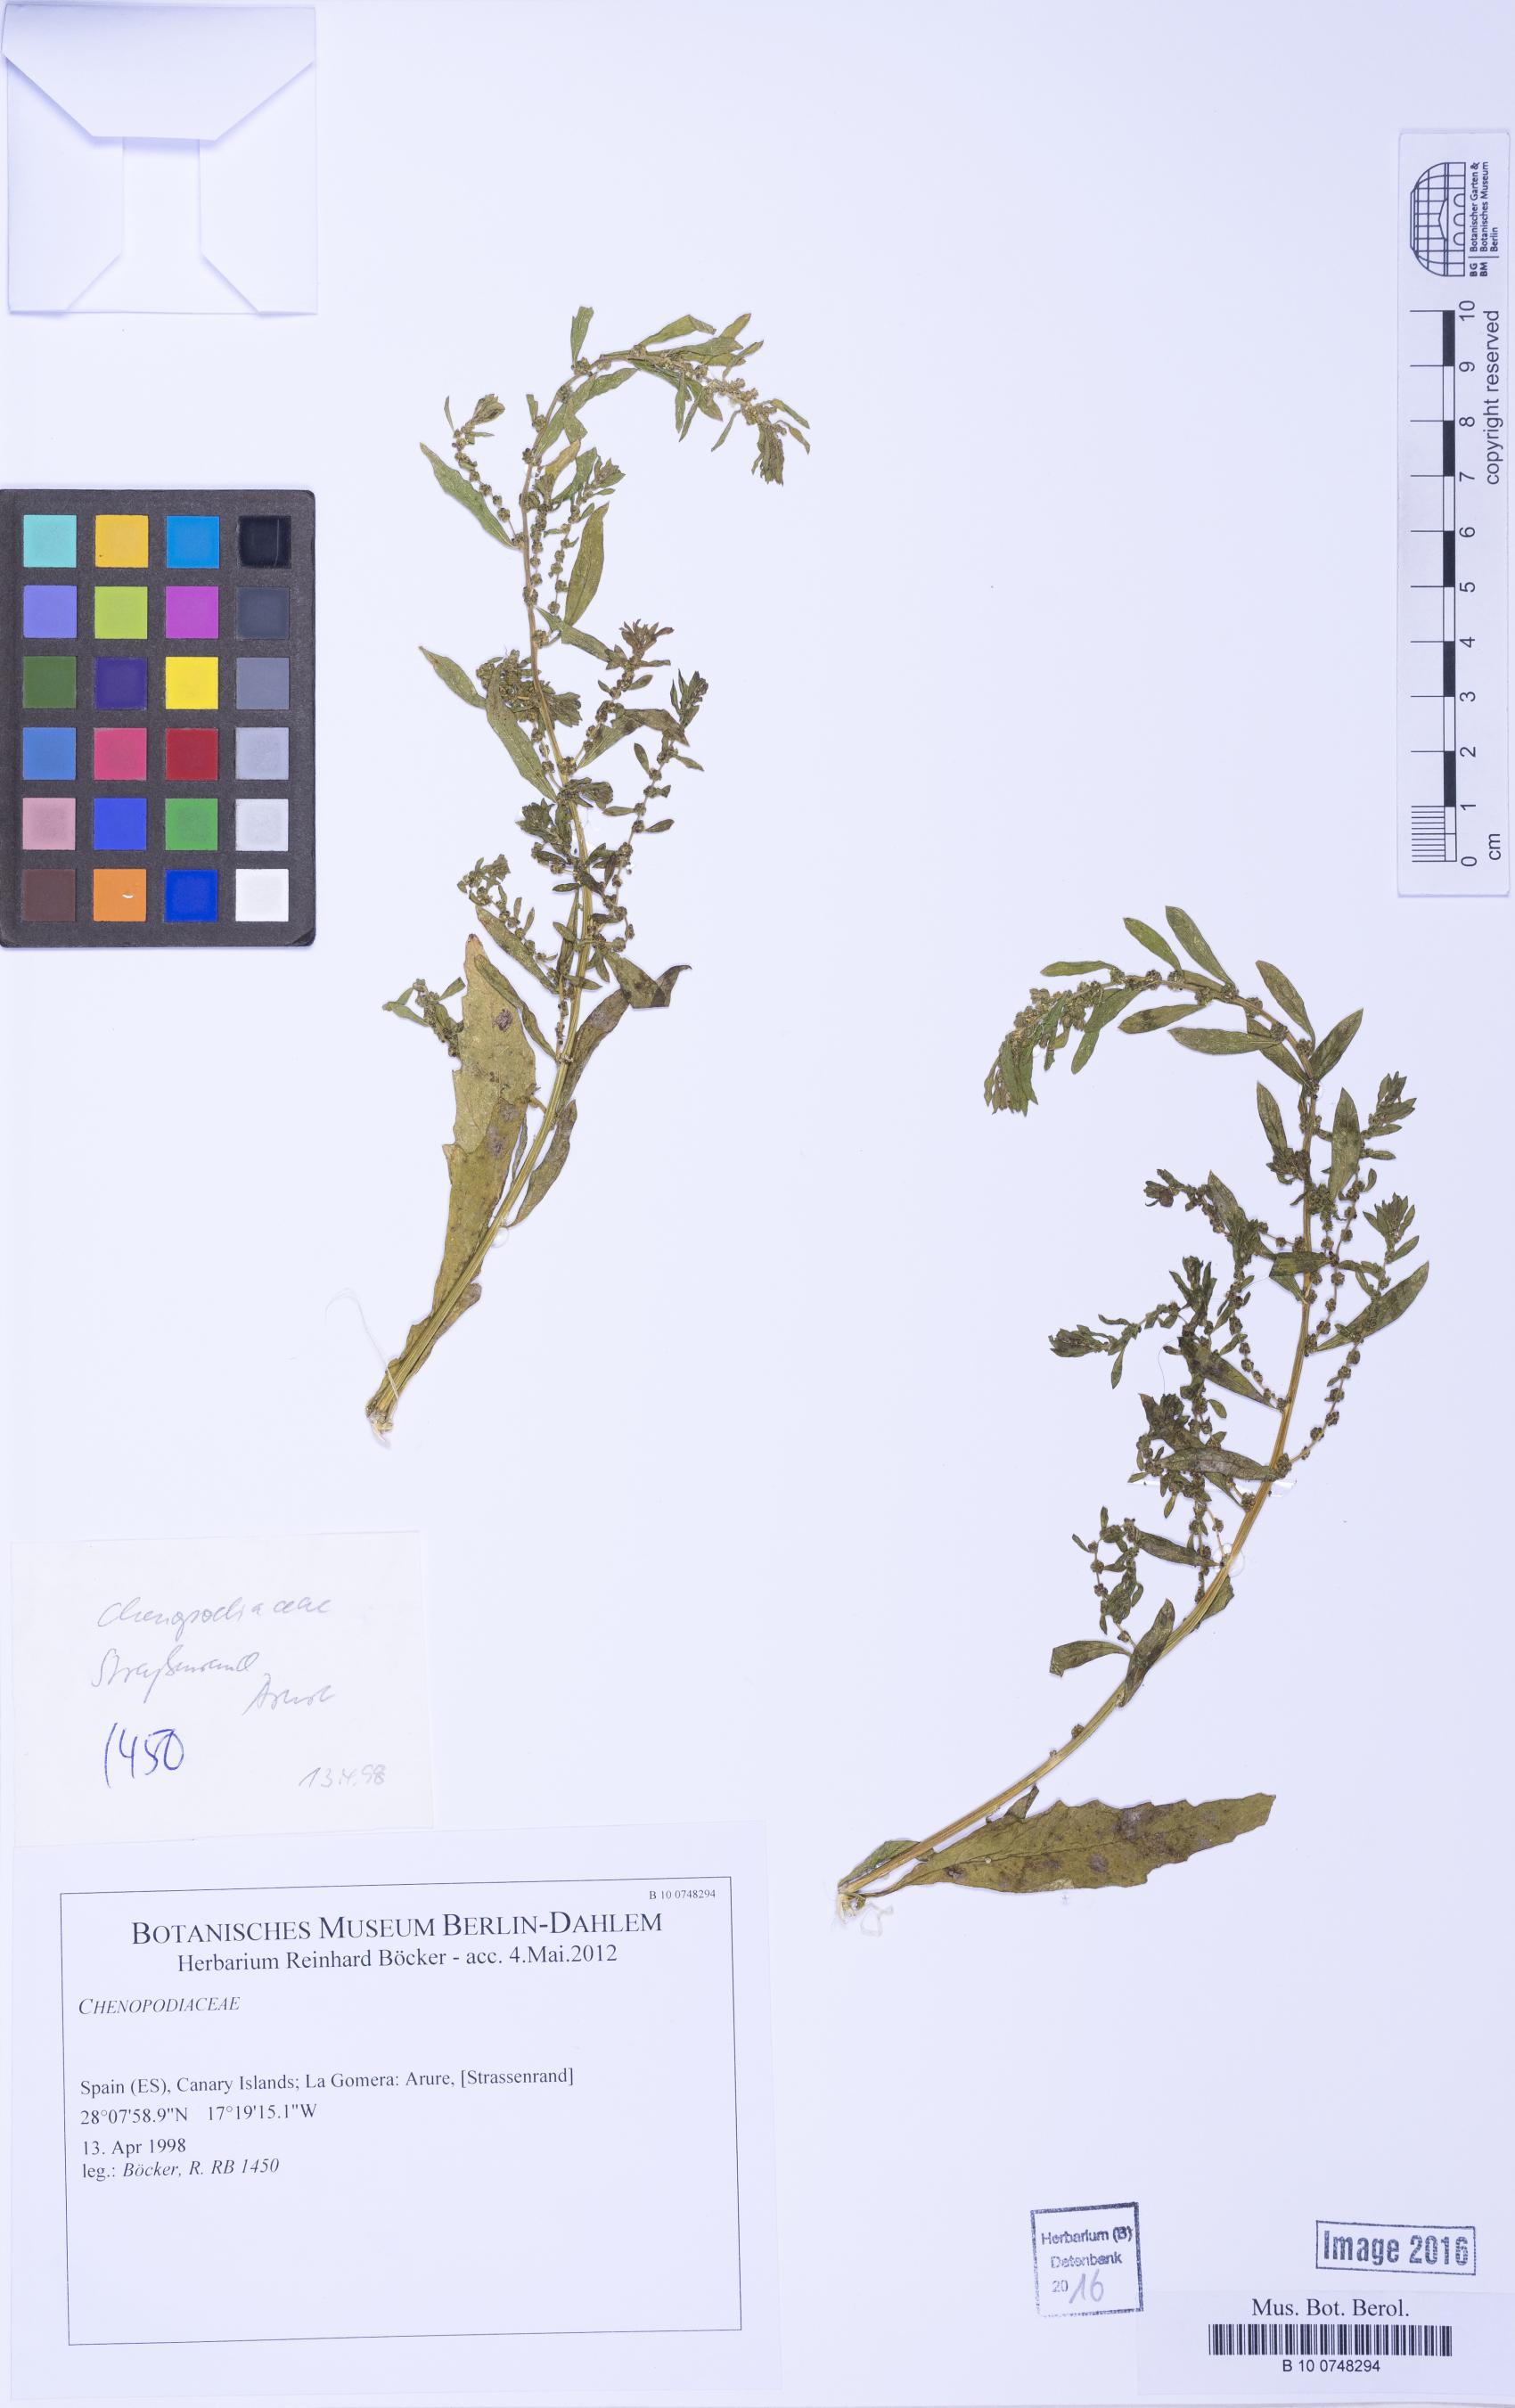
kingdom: Plantae
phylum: Tracheophyta
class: Magnoliopsida
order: Caryophyllales
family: Amaranthaceae
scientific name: Amaranthaceae
